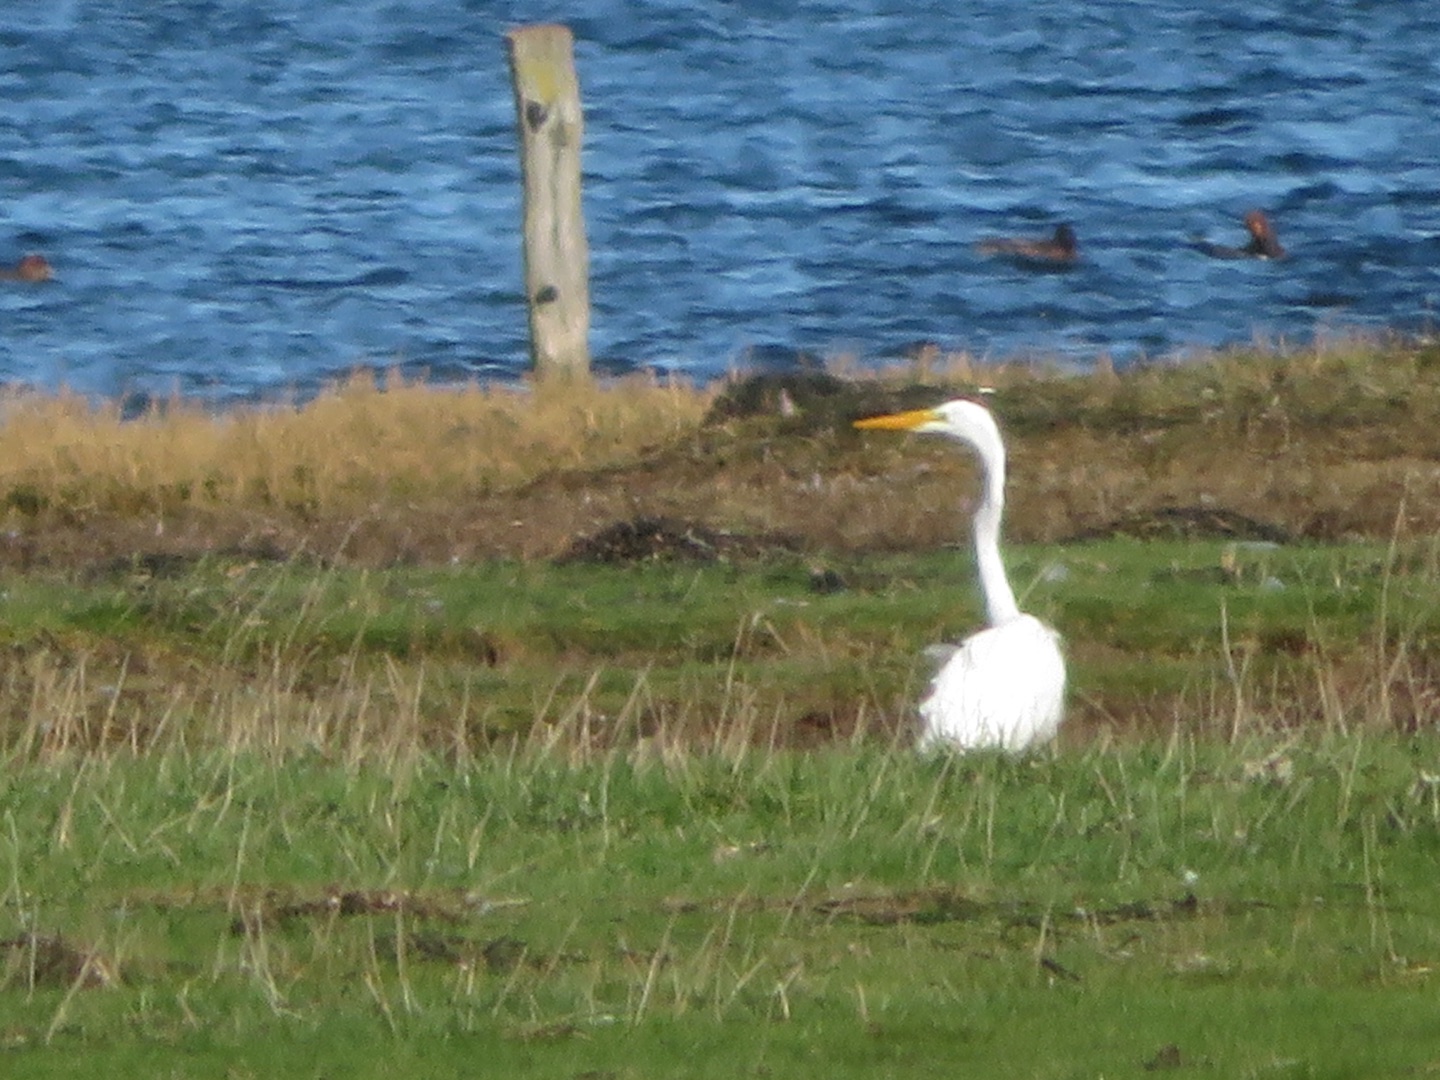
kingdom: Animalia
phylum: Chordata
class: Aves
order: Pelecaniformes
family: Ardeidae
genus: Ardea
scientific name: Ardea alba
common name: Sølvhejre
